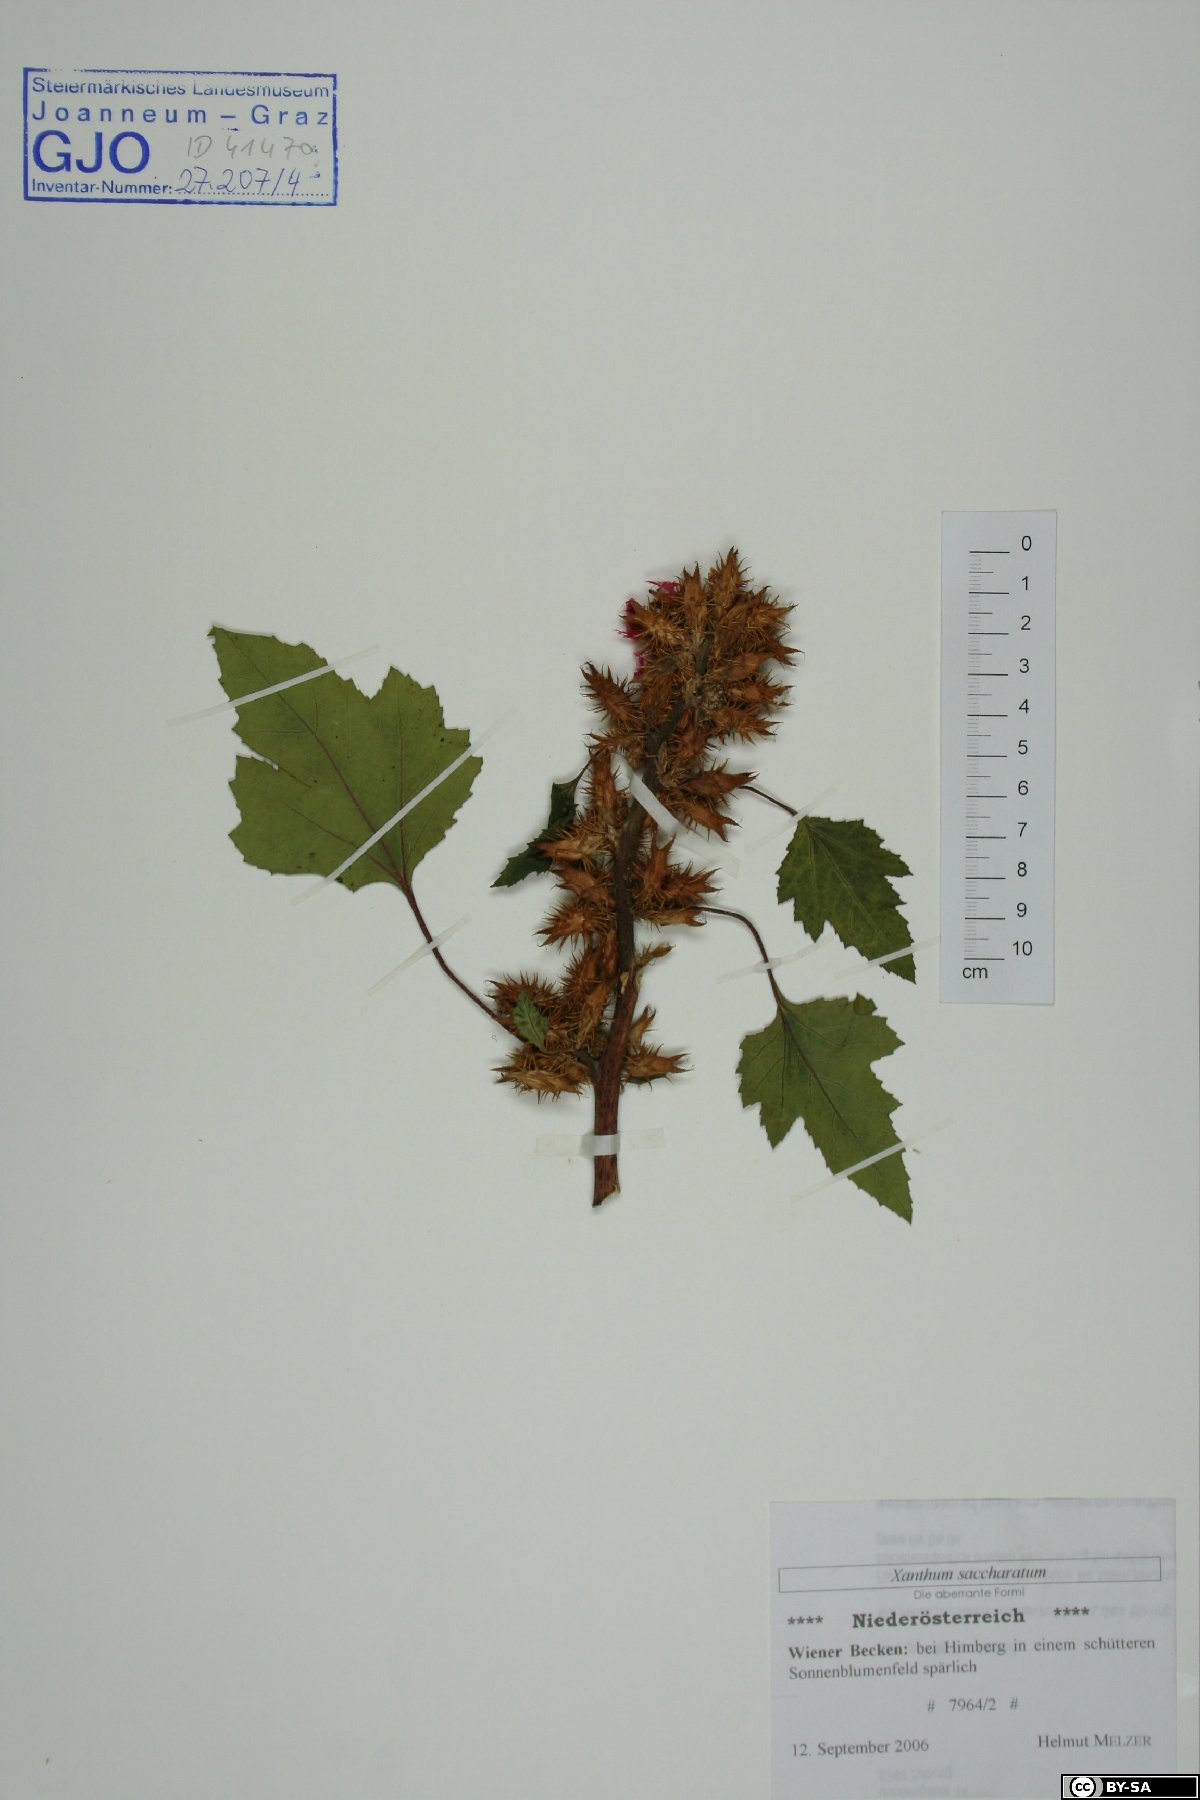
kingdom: Plantae
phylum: Tracheophyta
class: Magnoliopsida
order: Asterales
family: Asteraceae
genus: Xanthium
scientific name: Xanthium orientale
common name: Californian burr
